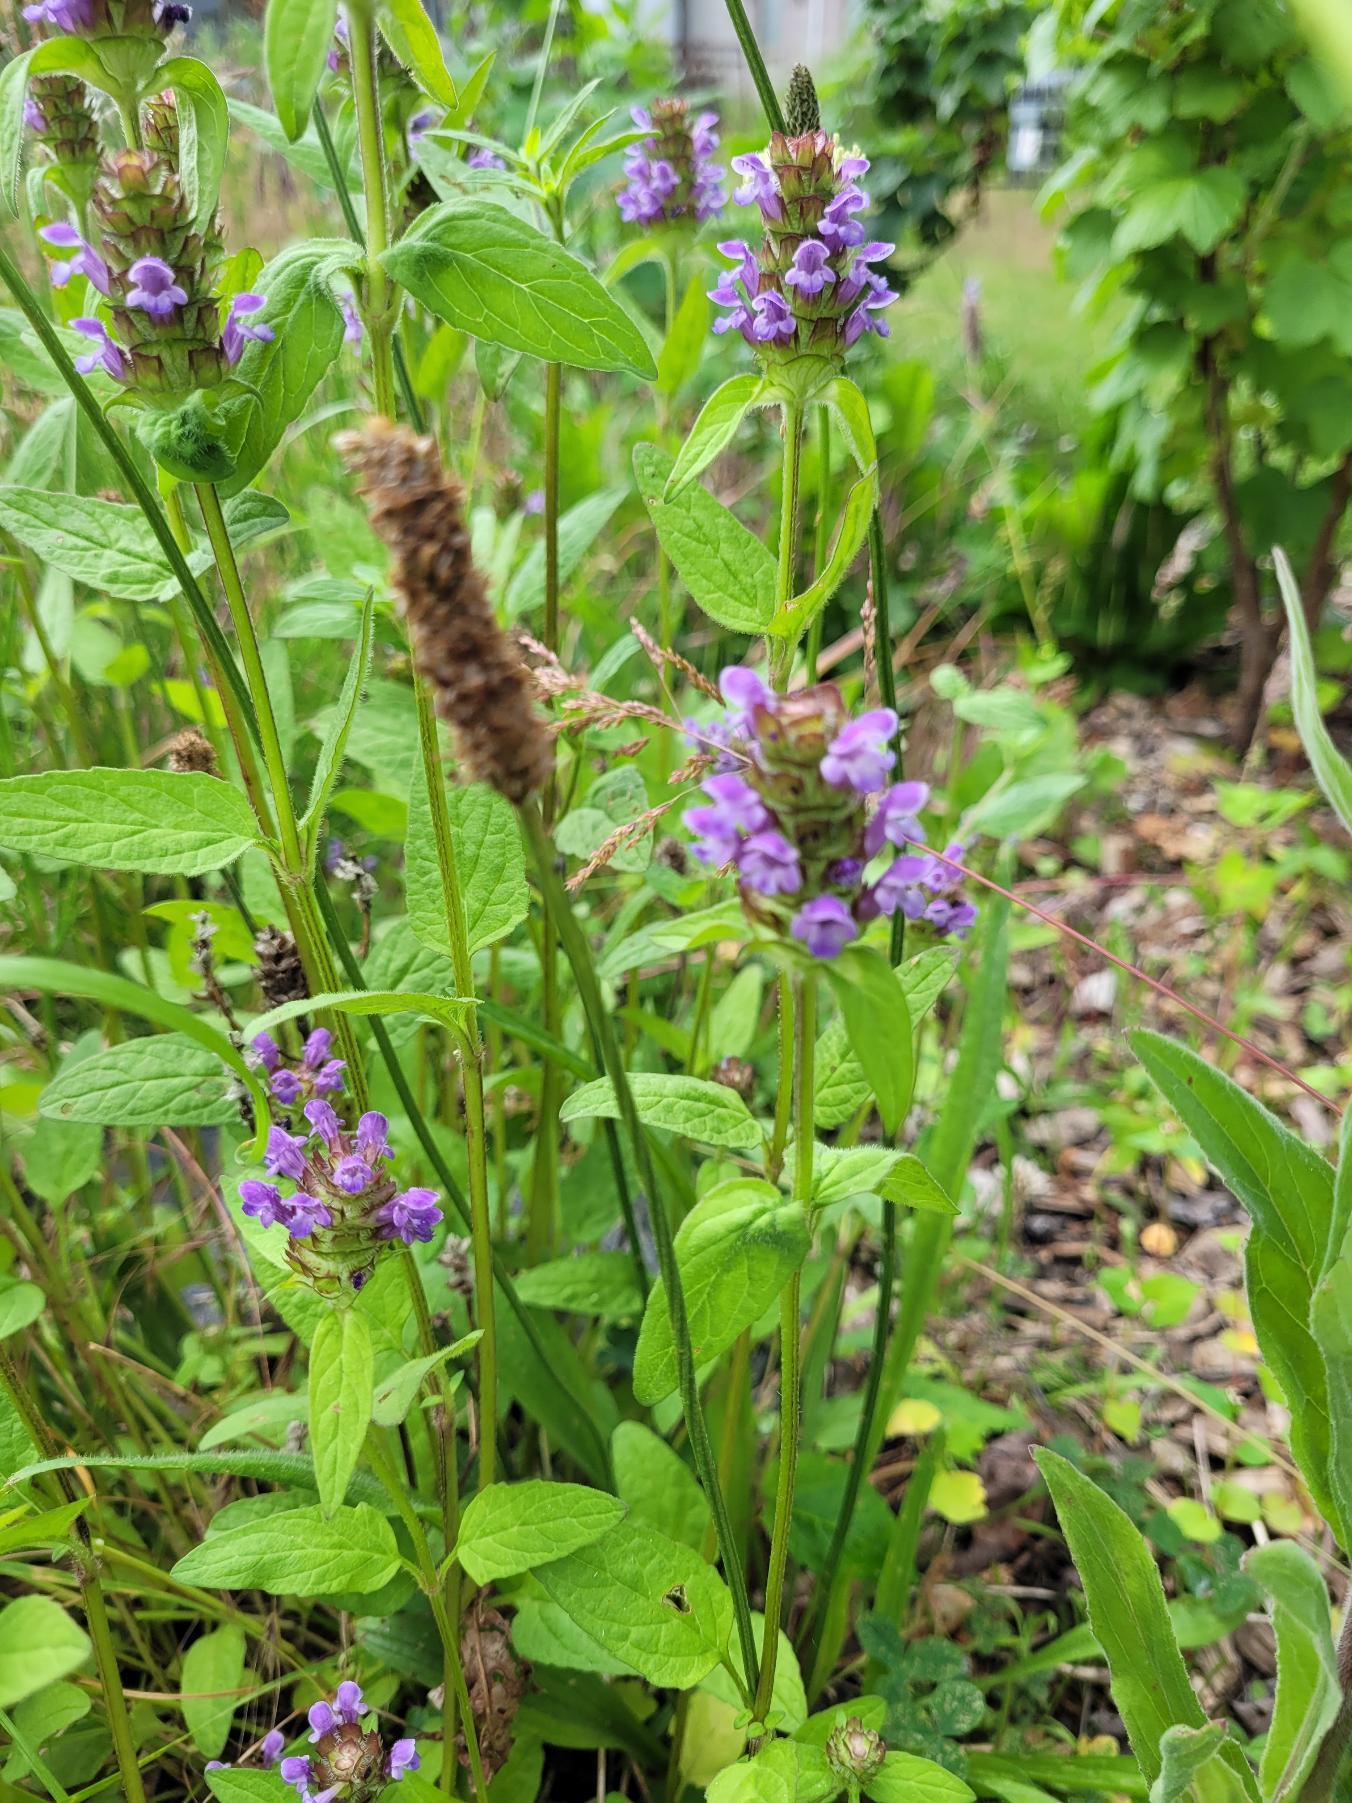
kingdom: Plantae
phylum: Tracheophyta
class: Magnoliopsida
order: Lamiales
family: Lamiaceae
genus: Prunella
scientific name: Prunella vulgaris
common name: Almindelig brunelle
